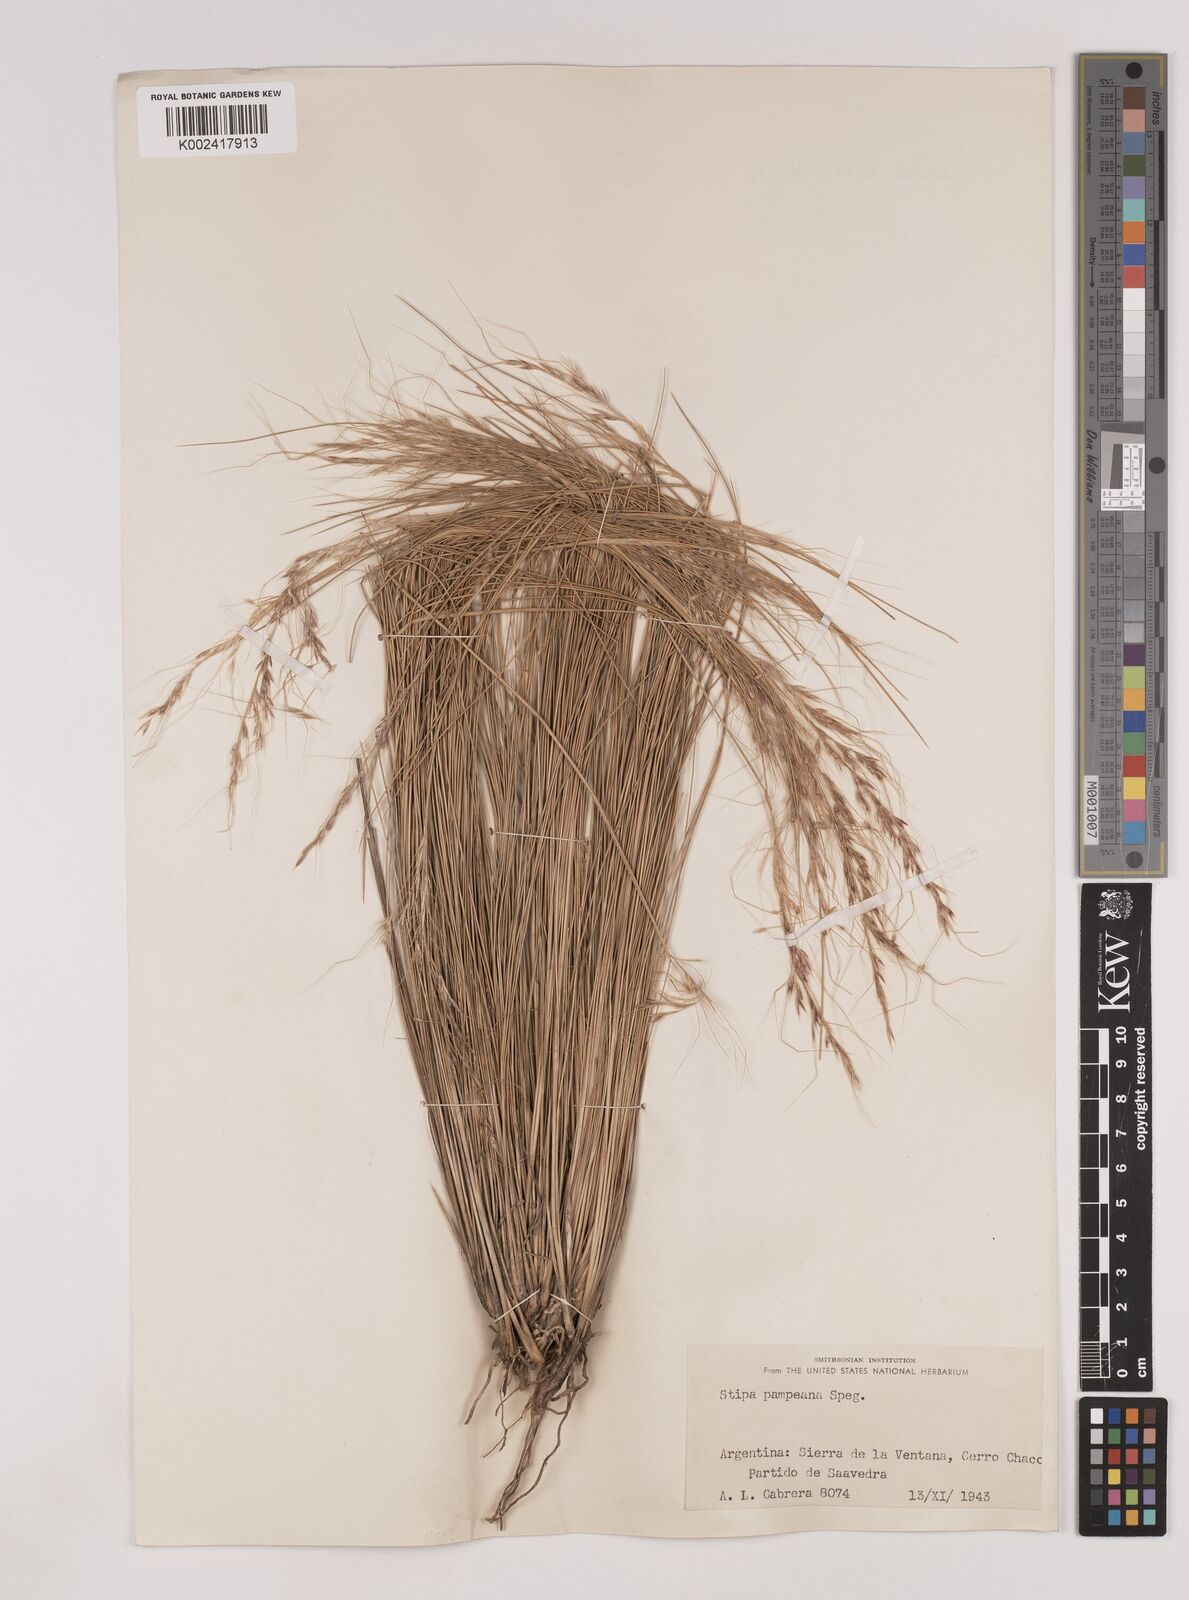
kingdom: Plantae
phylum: Tracheophyta
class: Liliopsida
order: Poales
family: Poaceae
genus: Nassella
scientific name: Nassella pampeana
